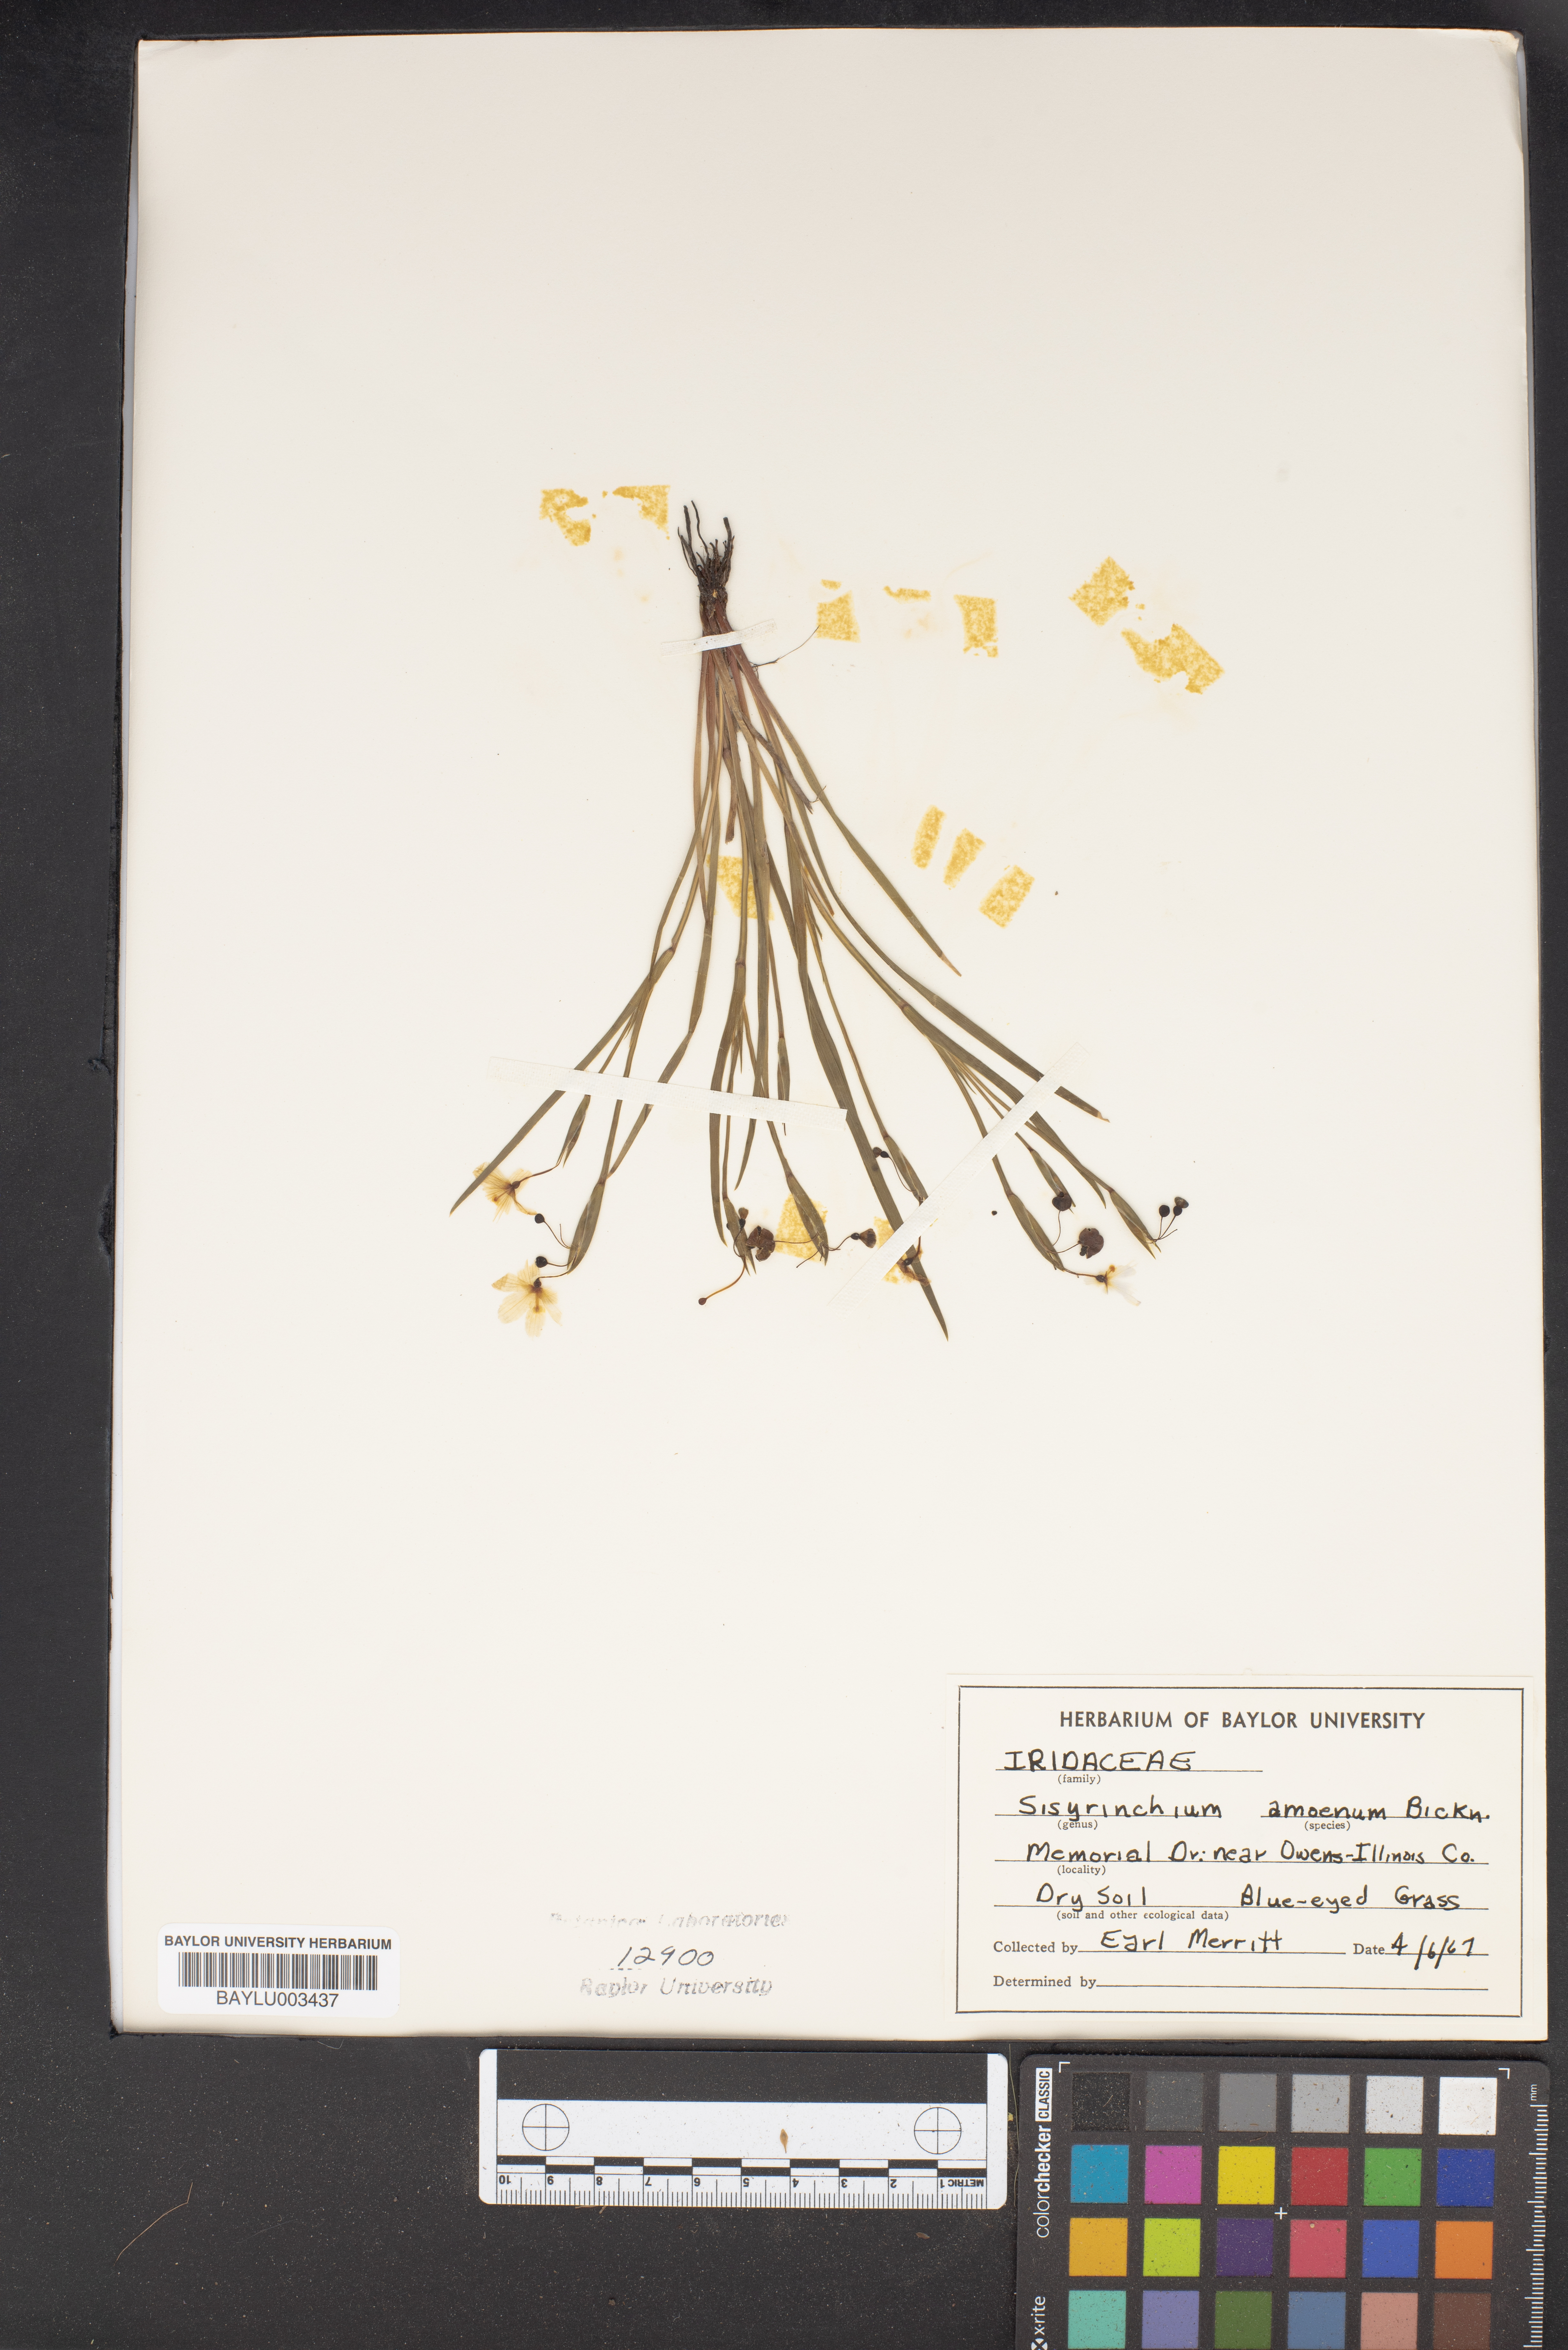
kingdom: Plantae
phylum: Tracheophyta
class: Liliopsida
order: Asparagales
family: Iridaceae
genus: Sisyrinchium
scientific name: Sisyrinchium ensigerum
